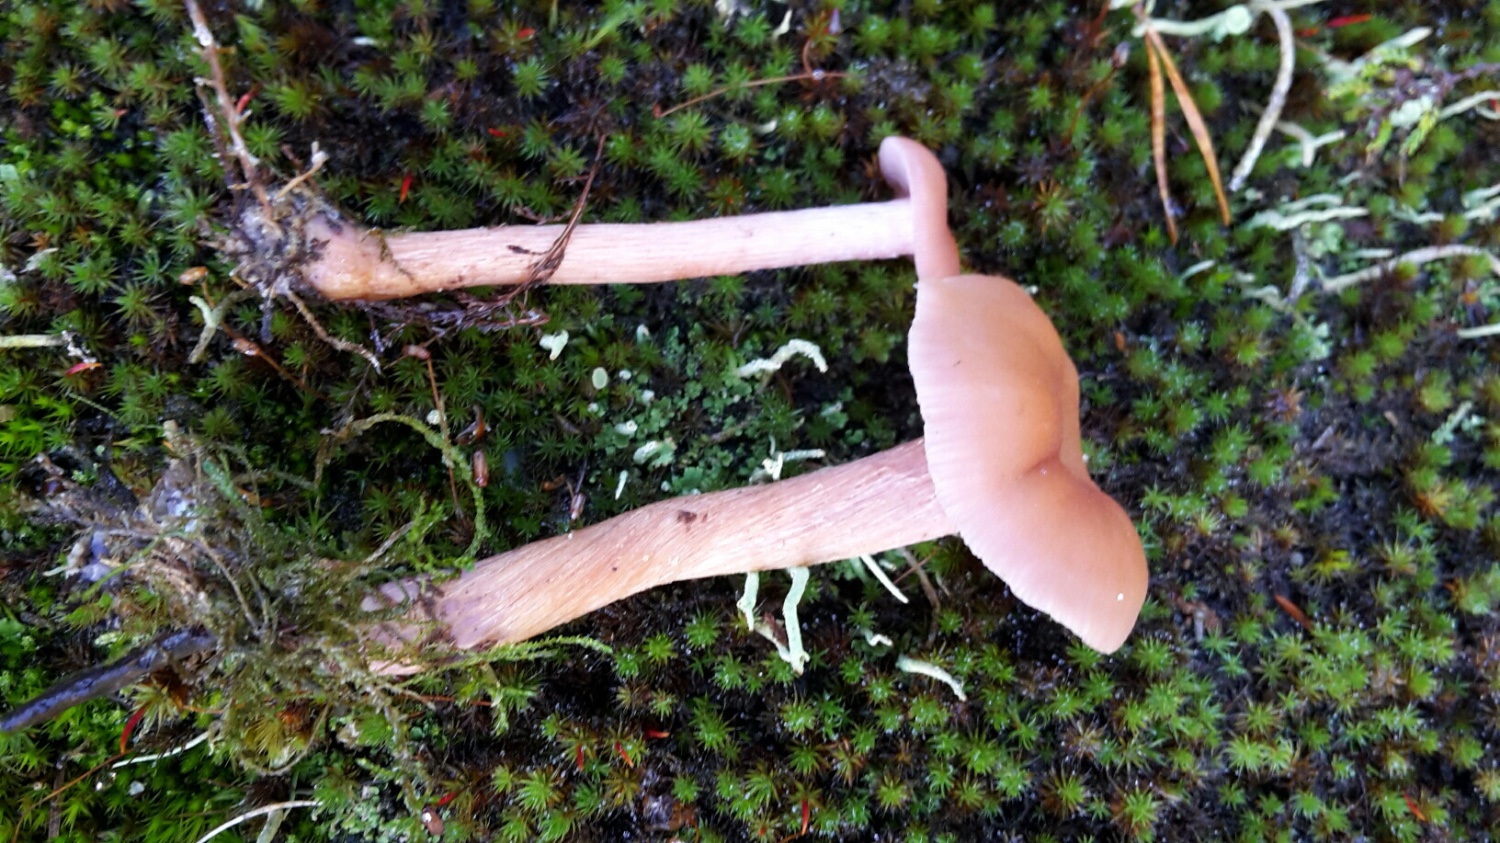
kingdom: Fungi
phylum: Basidiomycota
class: Agaricomycetes
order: Agaricales
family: Hydnangiaceae
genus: Laccaria
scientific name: Laccaria bicolor
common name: tvefarvet ametysthat
